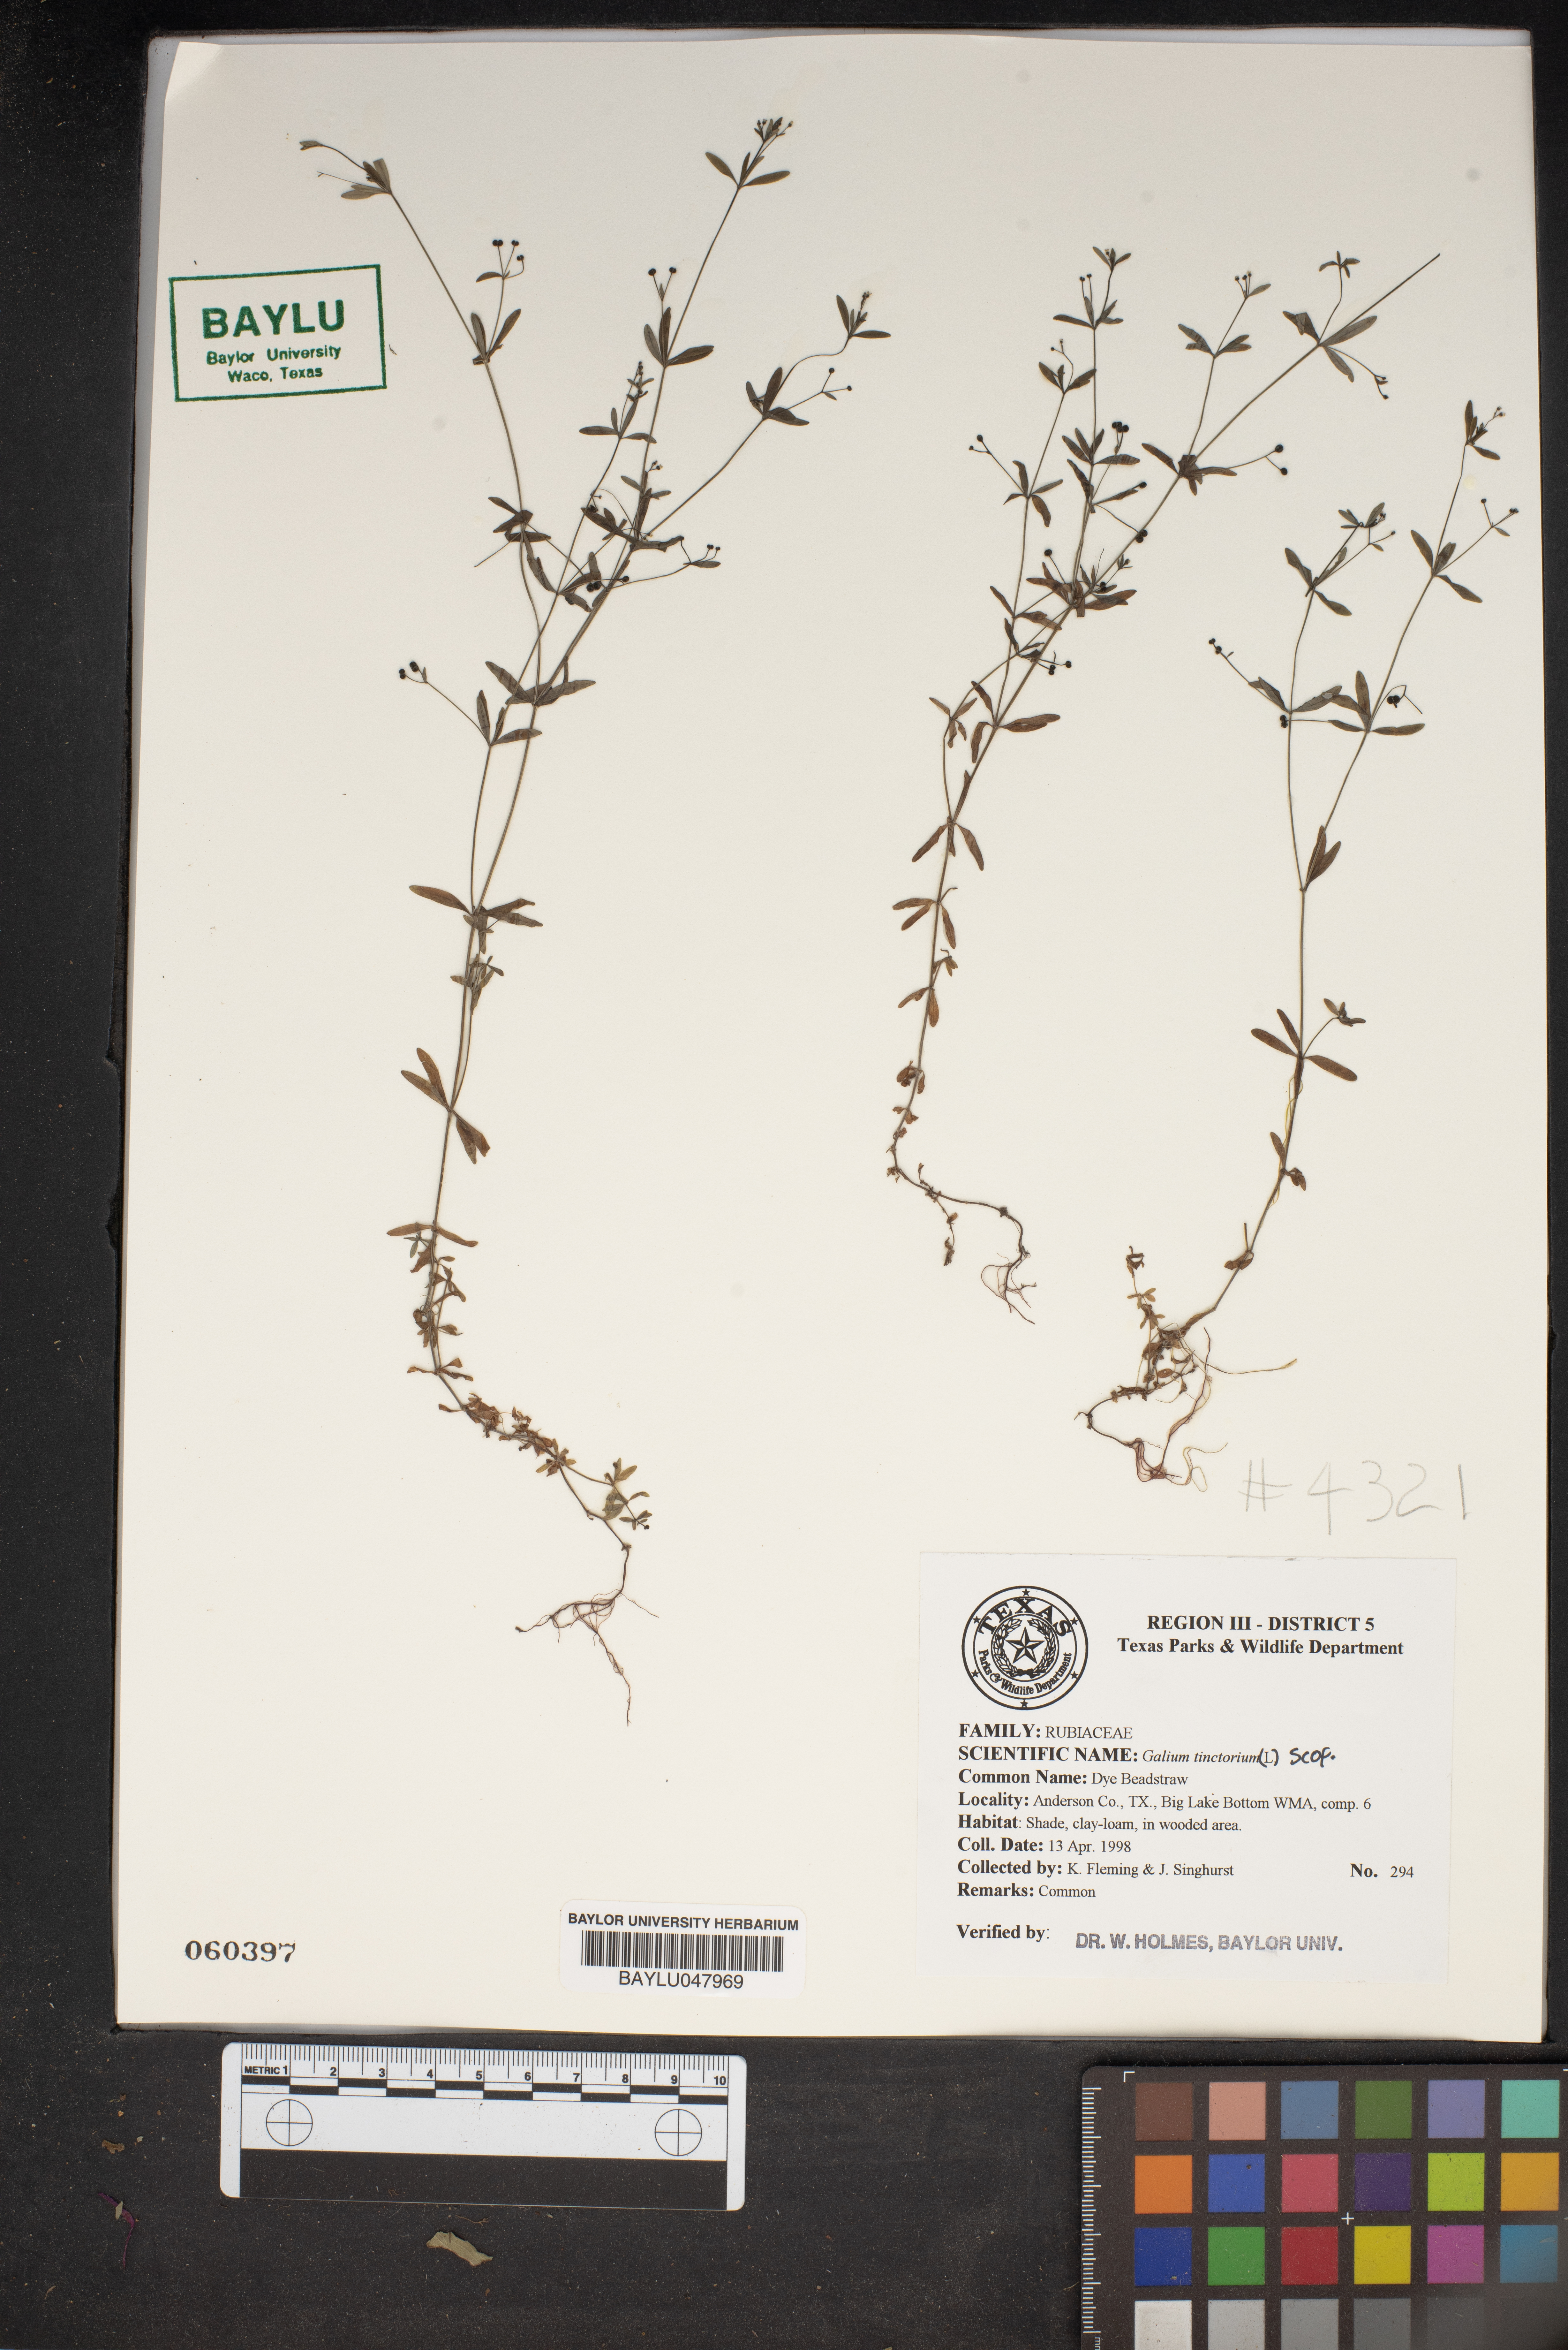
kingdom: Plantae
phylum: Tracheophyta
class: Magnoliopsida
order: Gentianales
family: Rubiaceae
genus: Asperula
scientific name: Asperula tinctoria
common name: Dyer's woodruff
